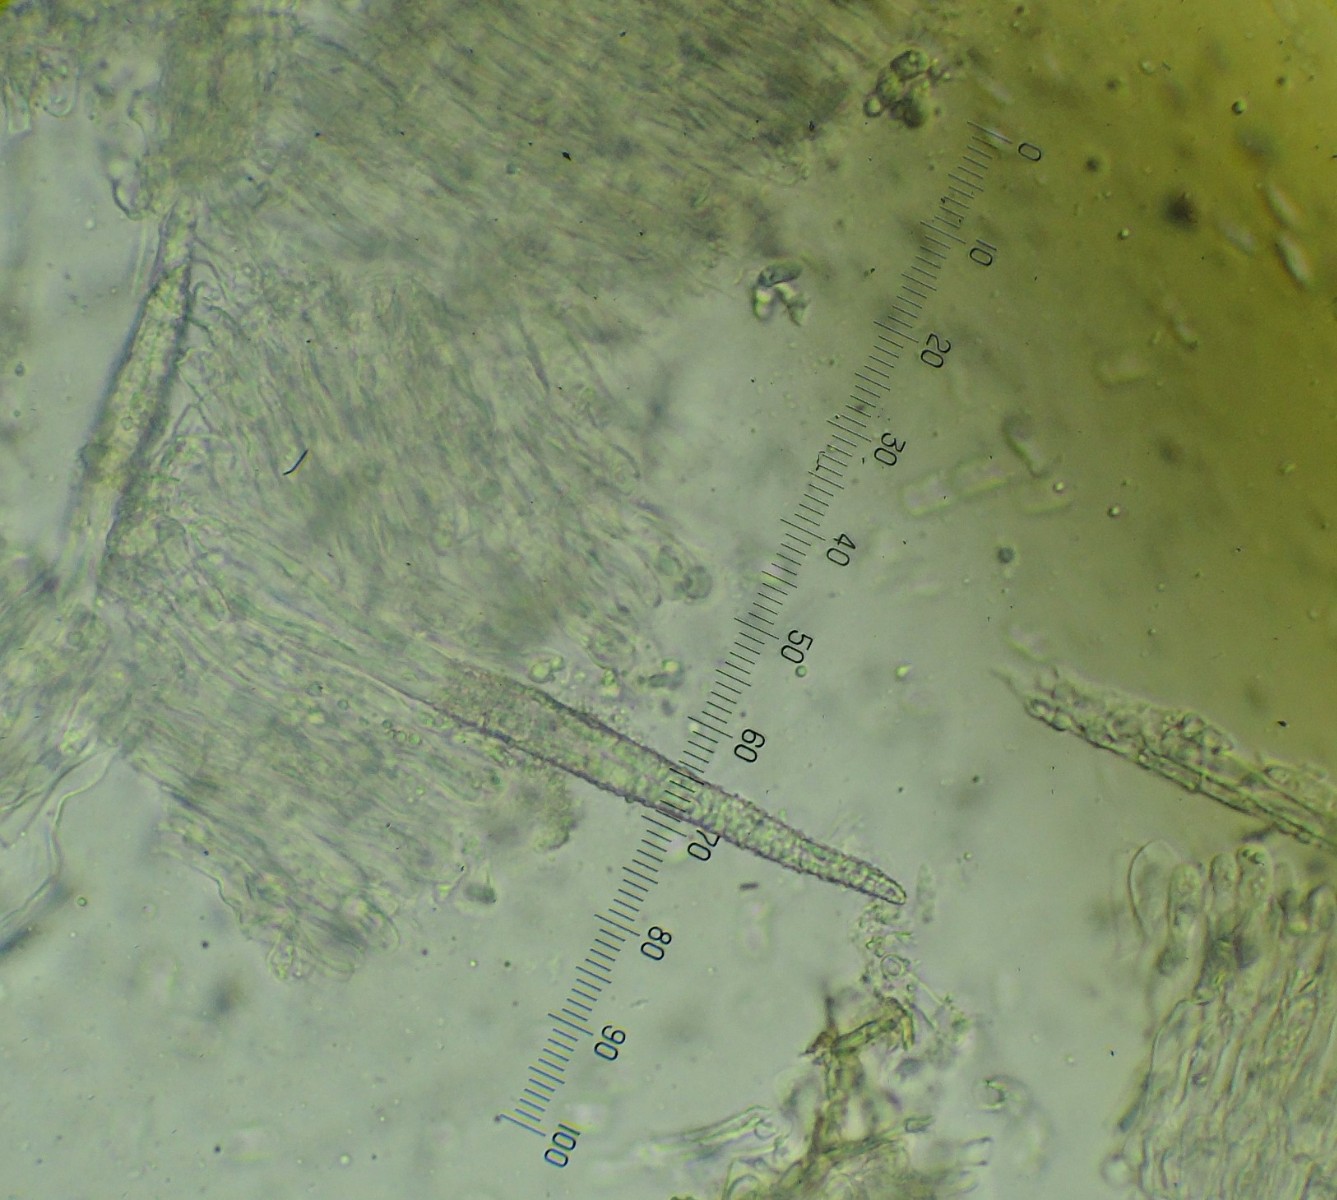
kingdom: Fungi
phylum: Basidiomycota
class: Agaricomycetes
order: Hymenochaetales
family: Rickenellaceae
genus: Peniophorella
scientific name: Peniophorella pubera
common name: dunet kalkskind
